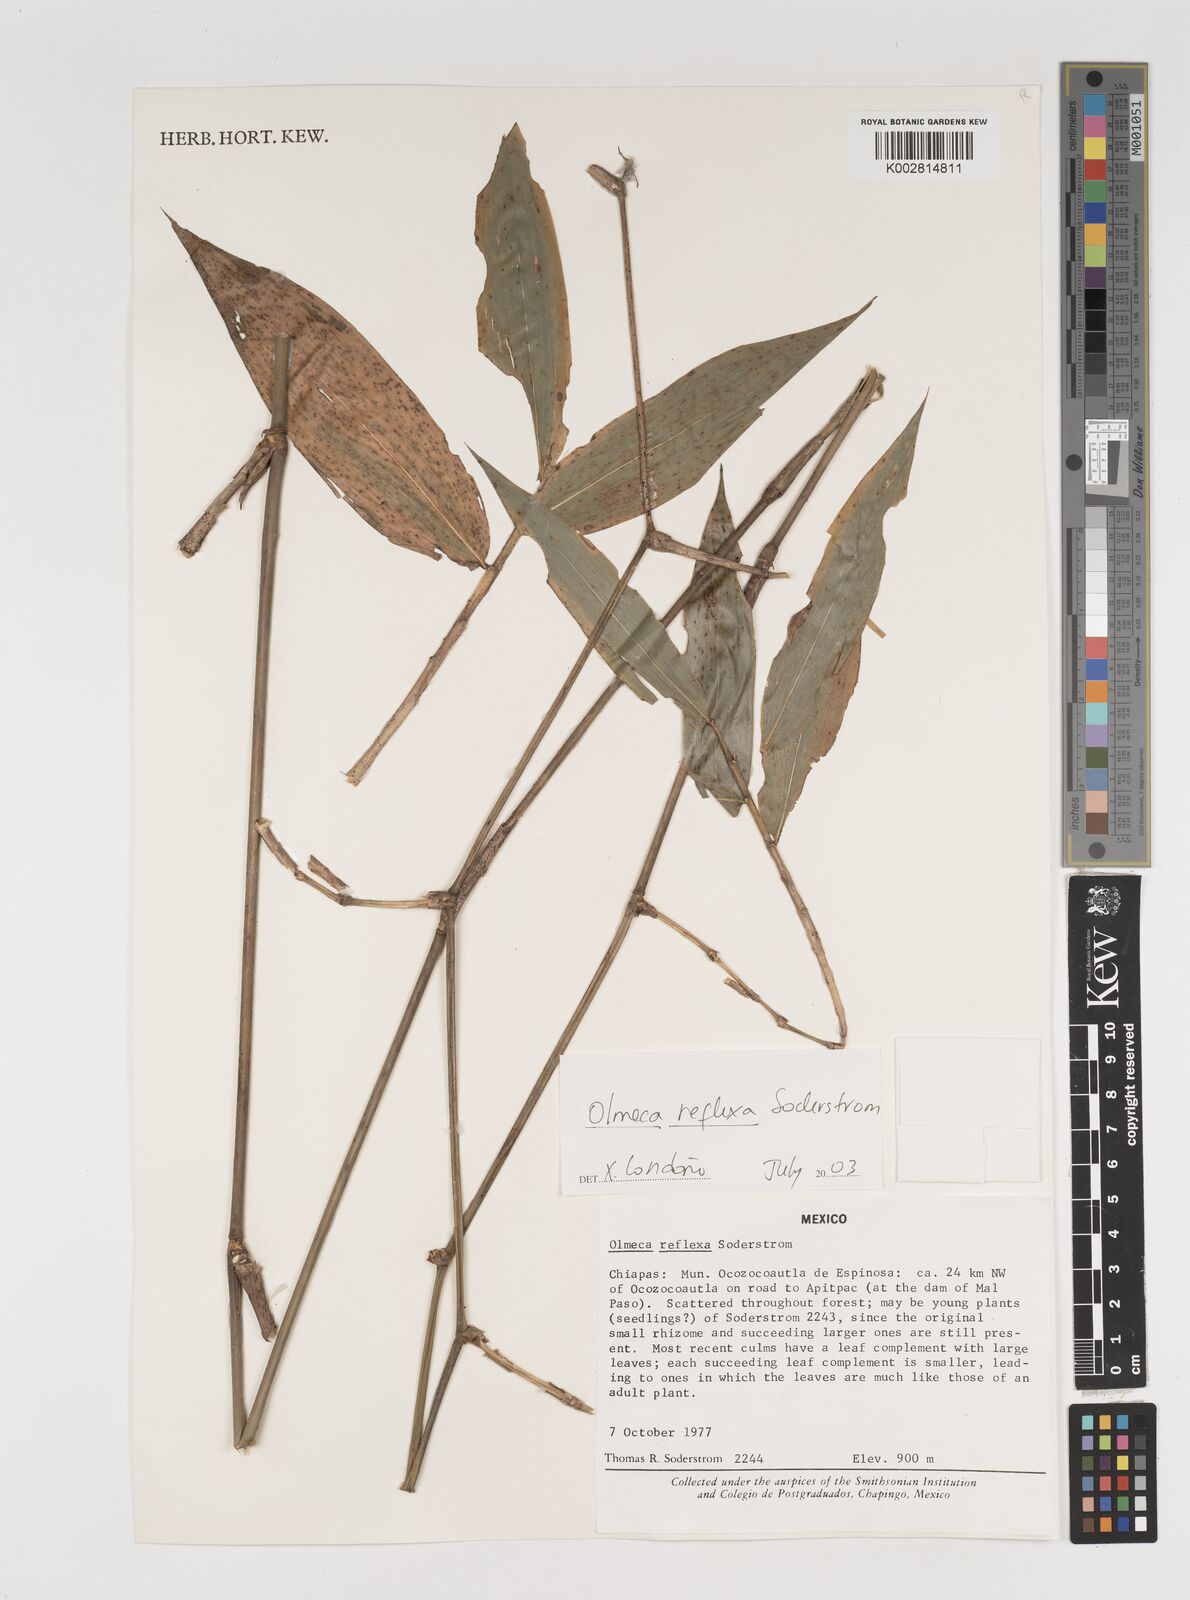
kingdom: Plantae
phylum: Tracheophyta
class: Liliopsida
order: Poales
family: Poaceae
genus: Olmeca
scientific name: Olmeca reflexa
